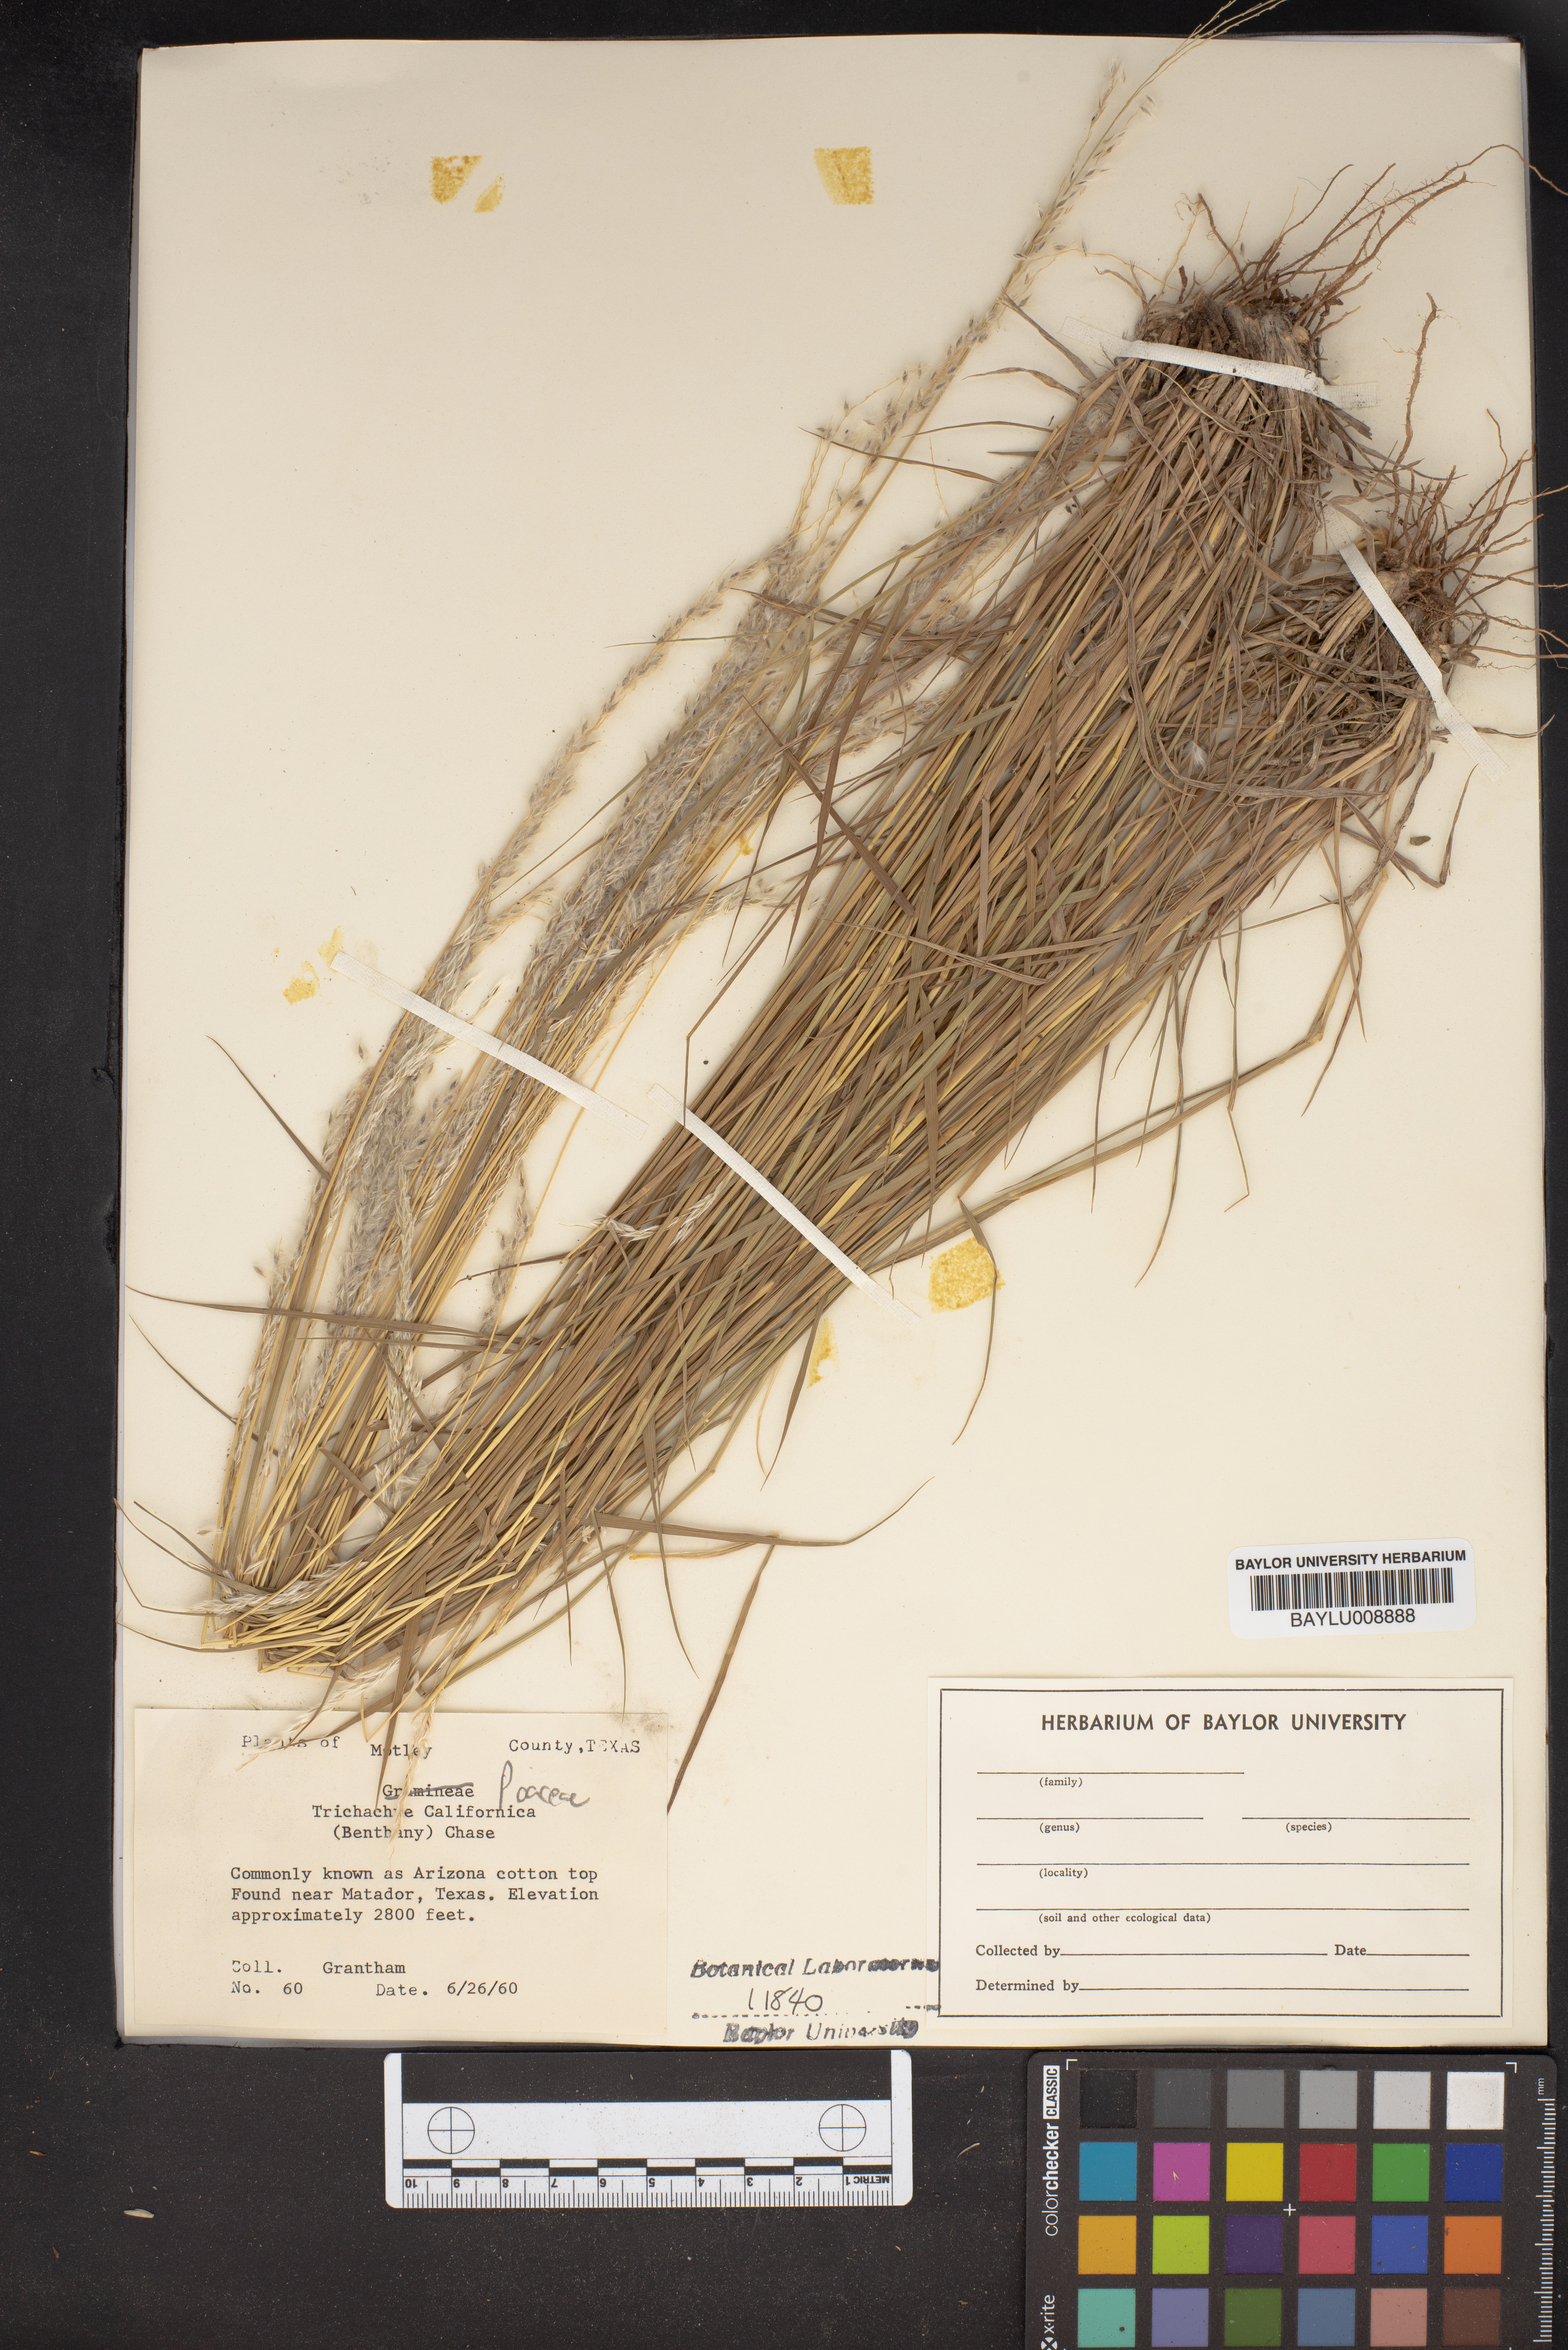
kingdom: Plantae
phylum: Tracheophyta
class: Liliopsida
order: Poales
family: Poaceae
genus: Digitaria
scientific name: Digitaria californica
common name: Arizona cottontop
